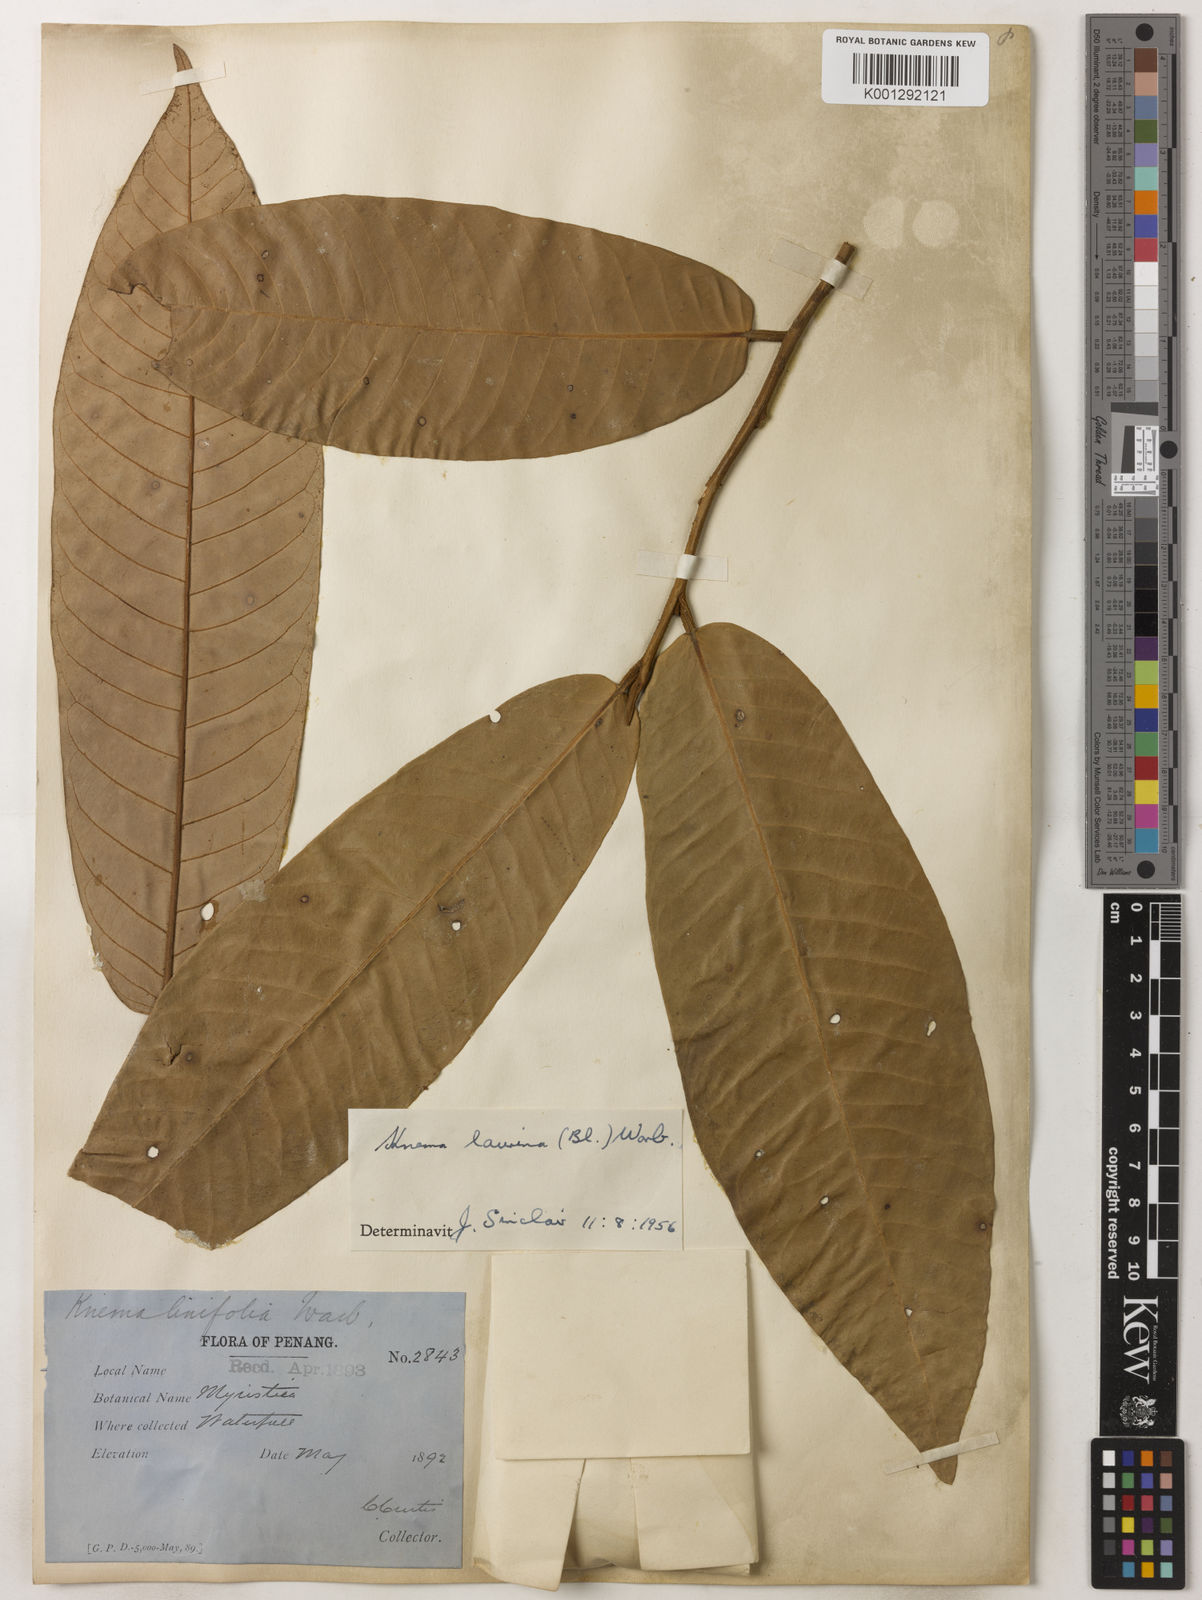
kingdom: Plantae
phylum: Tracheophyta
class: Magnoliopsida
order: Magnoliales
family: Myristicaceae
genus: Knema
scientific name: Knema laurina
